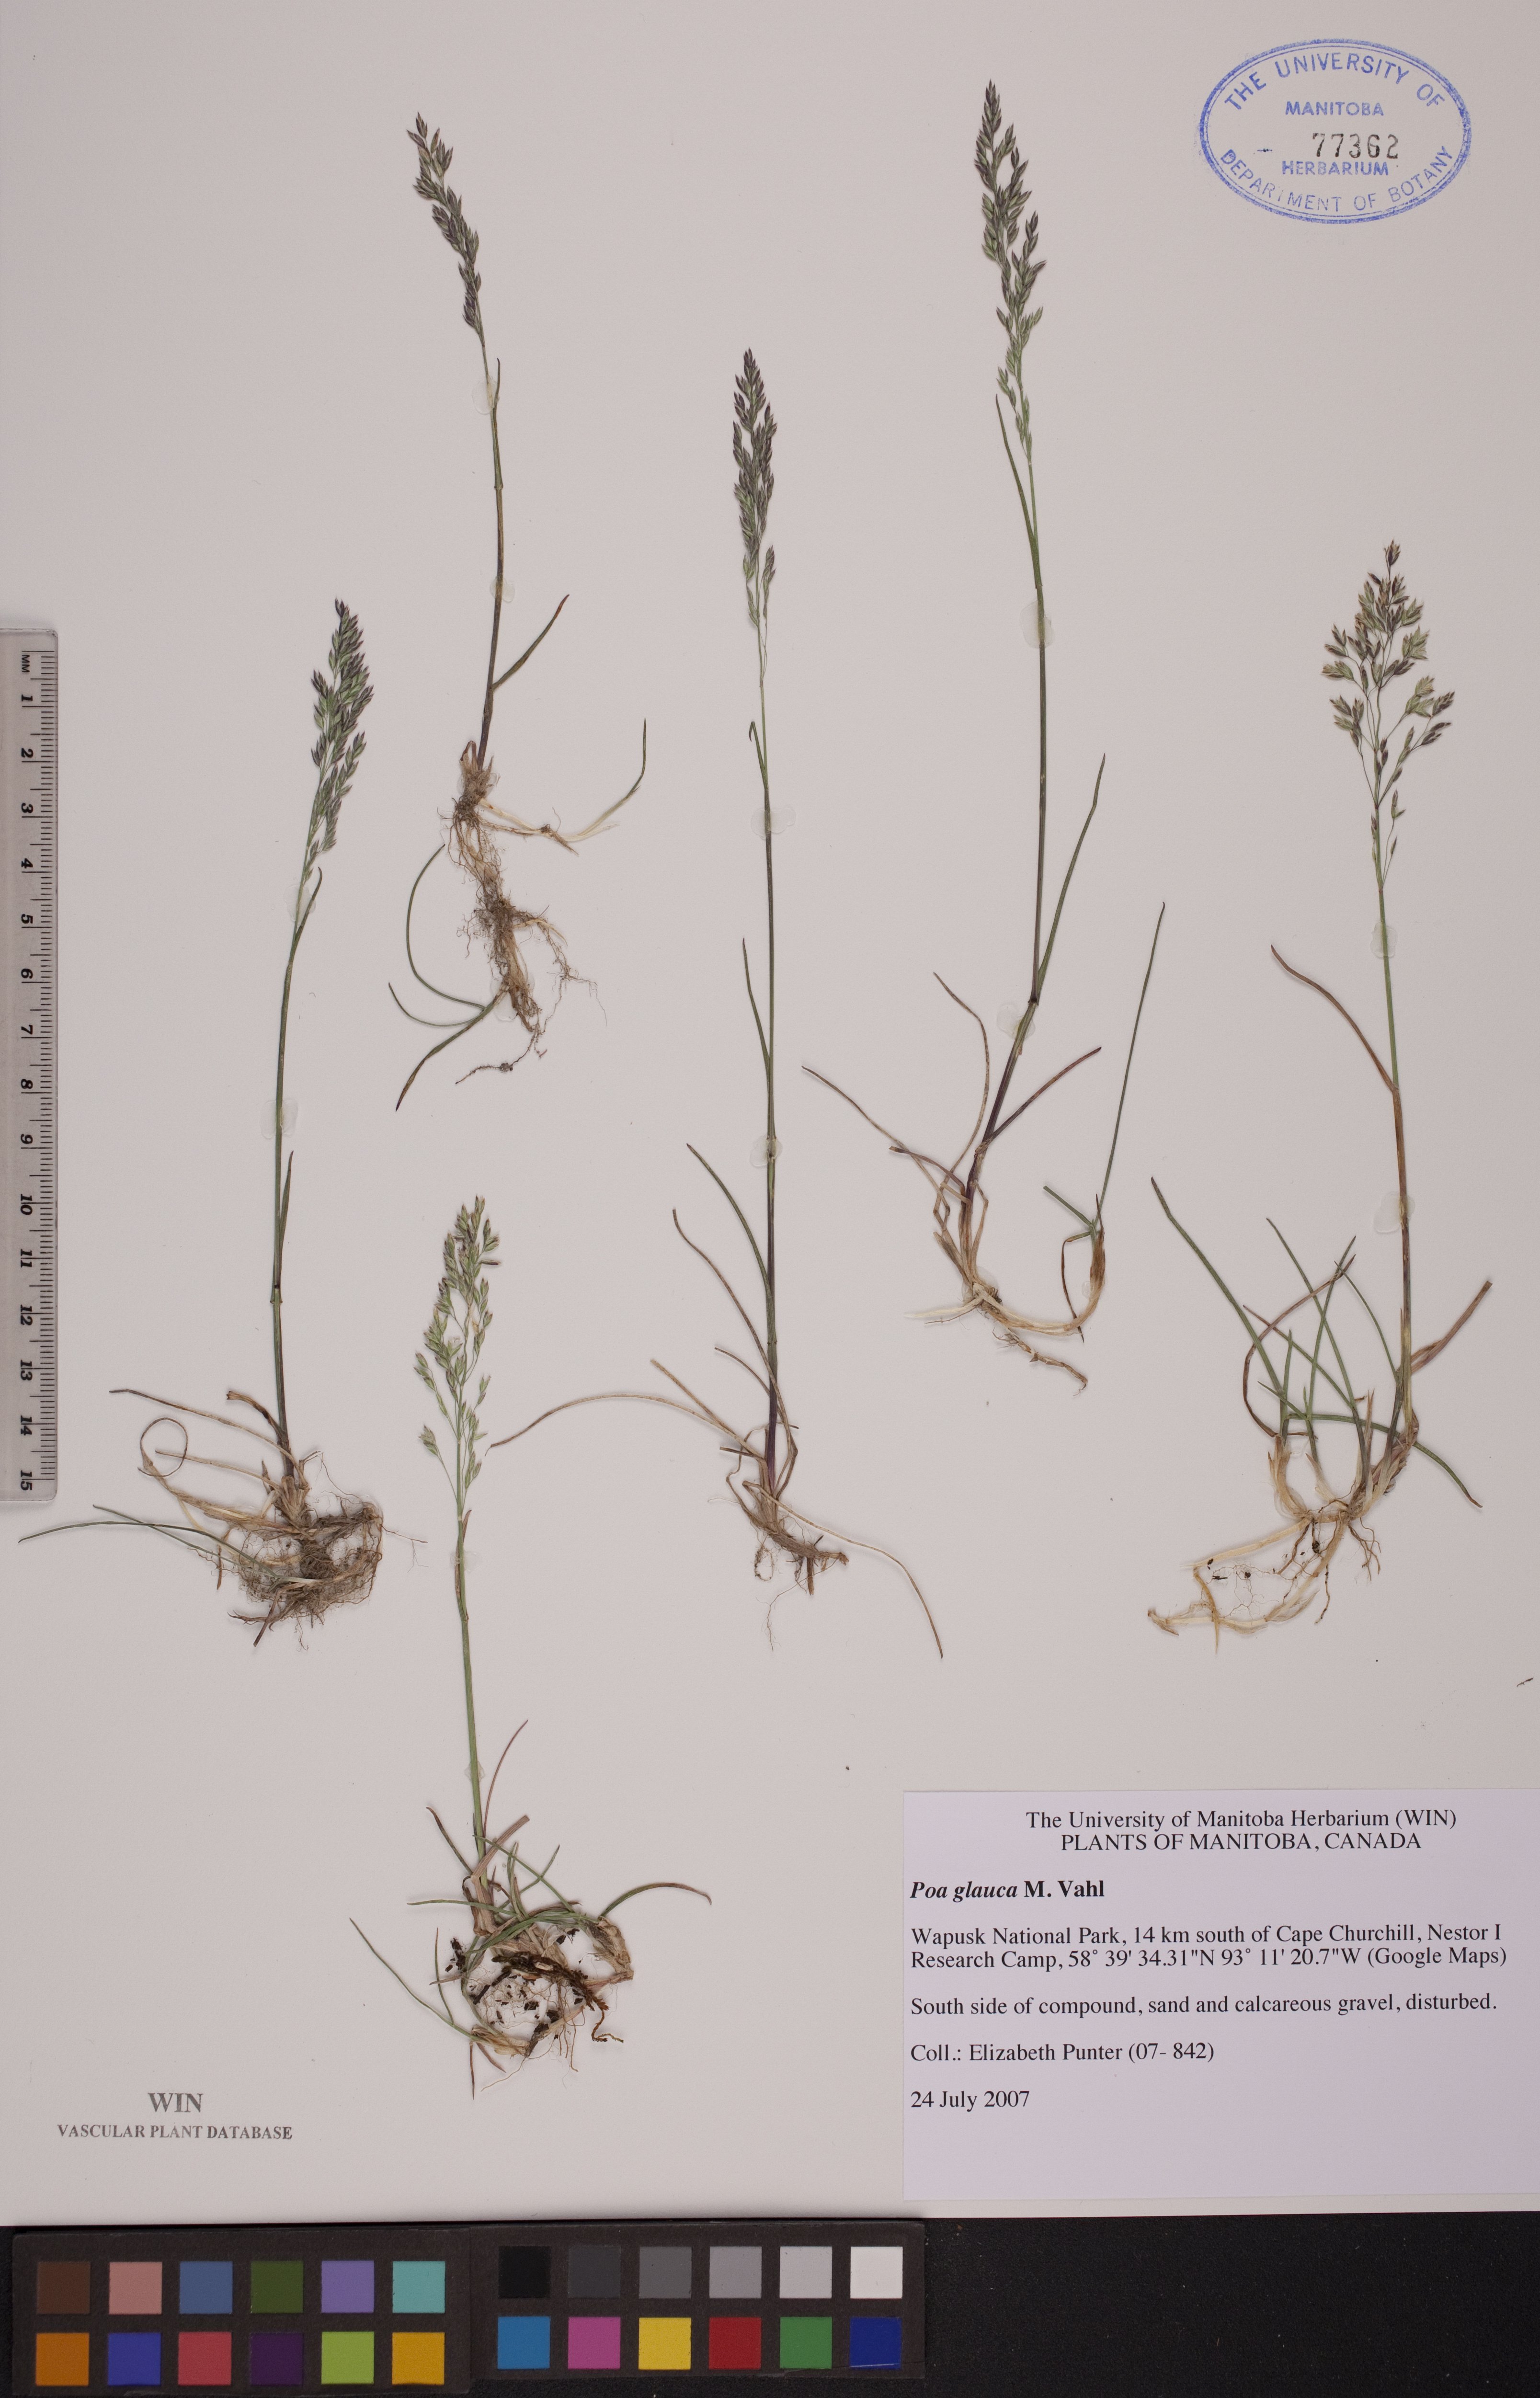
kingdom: Plantae
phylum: Tracheophyta
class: Liliopsida
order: Poales
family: Poaceae
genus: Poa
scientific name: Poa glauca
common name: Glaucous bluegrass
